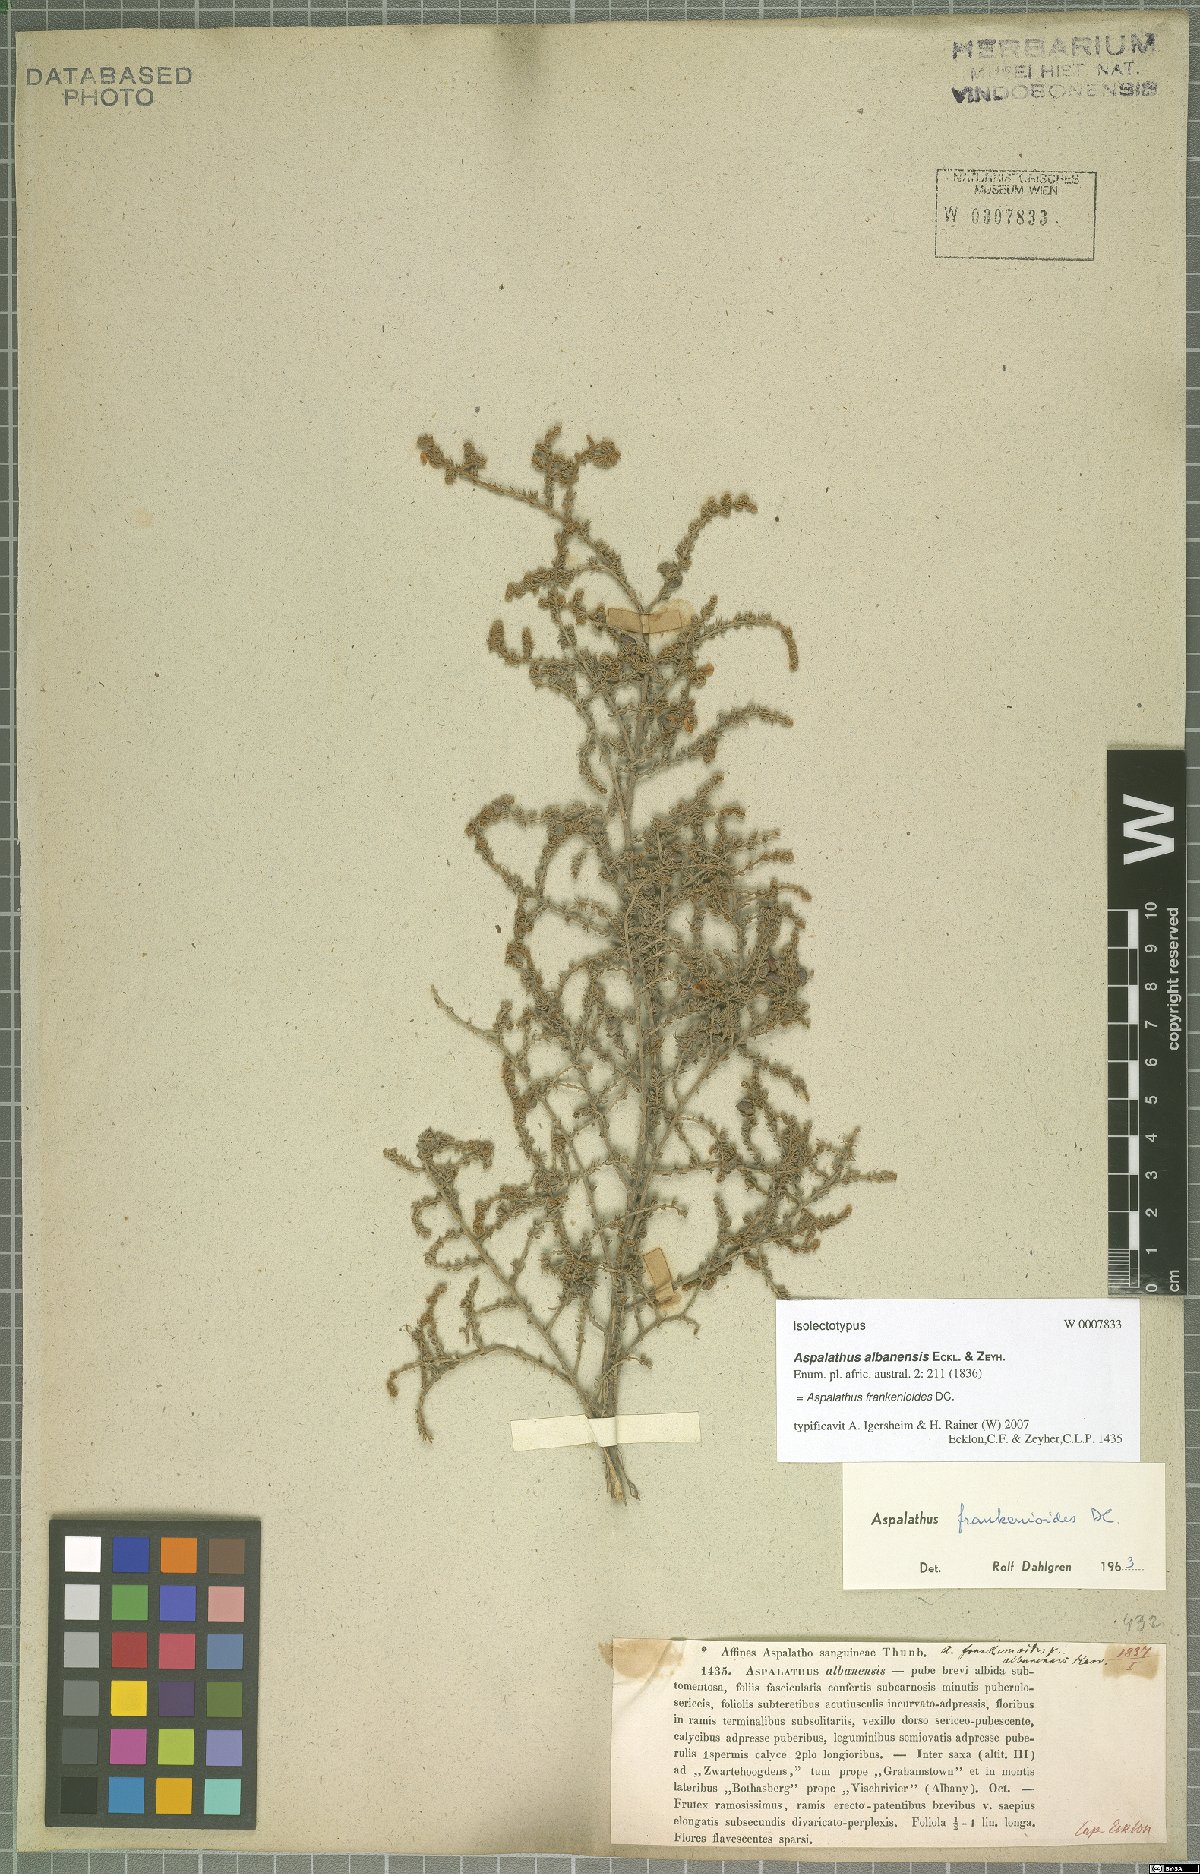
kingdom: Plantae
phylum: Tracheophyta
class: Magnoliopsida
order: Fabales
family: Fabaceae
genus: Aspalathus
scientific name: Aspalathus frankenioides
